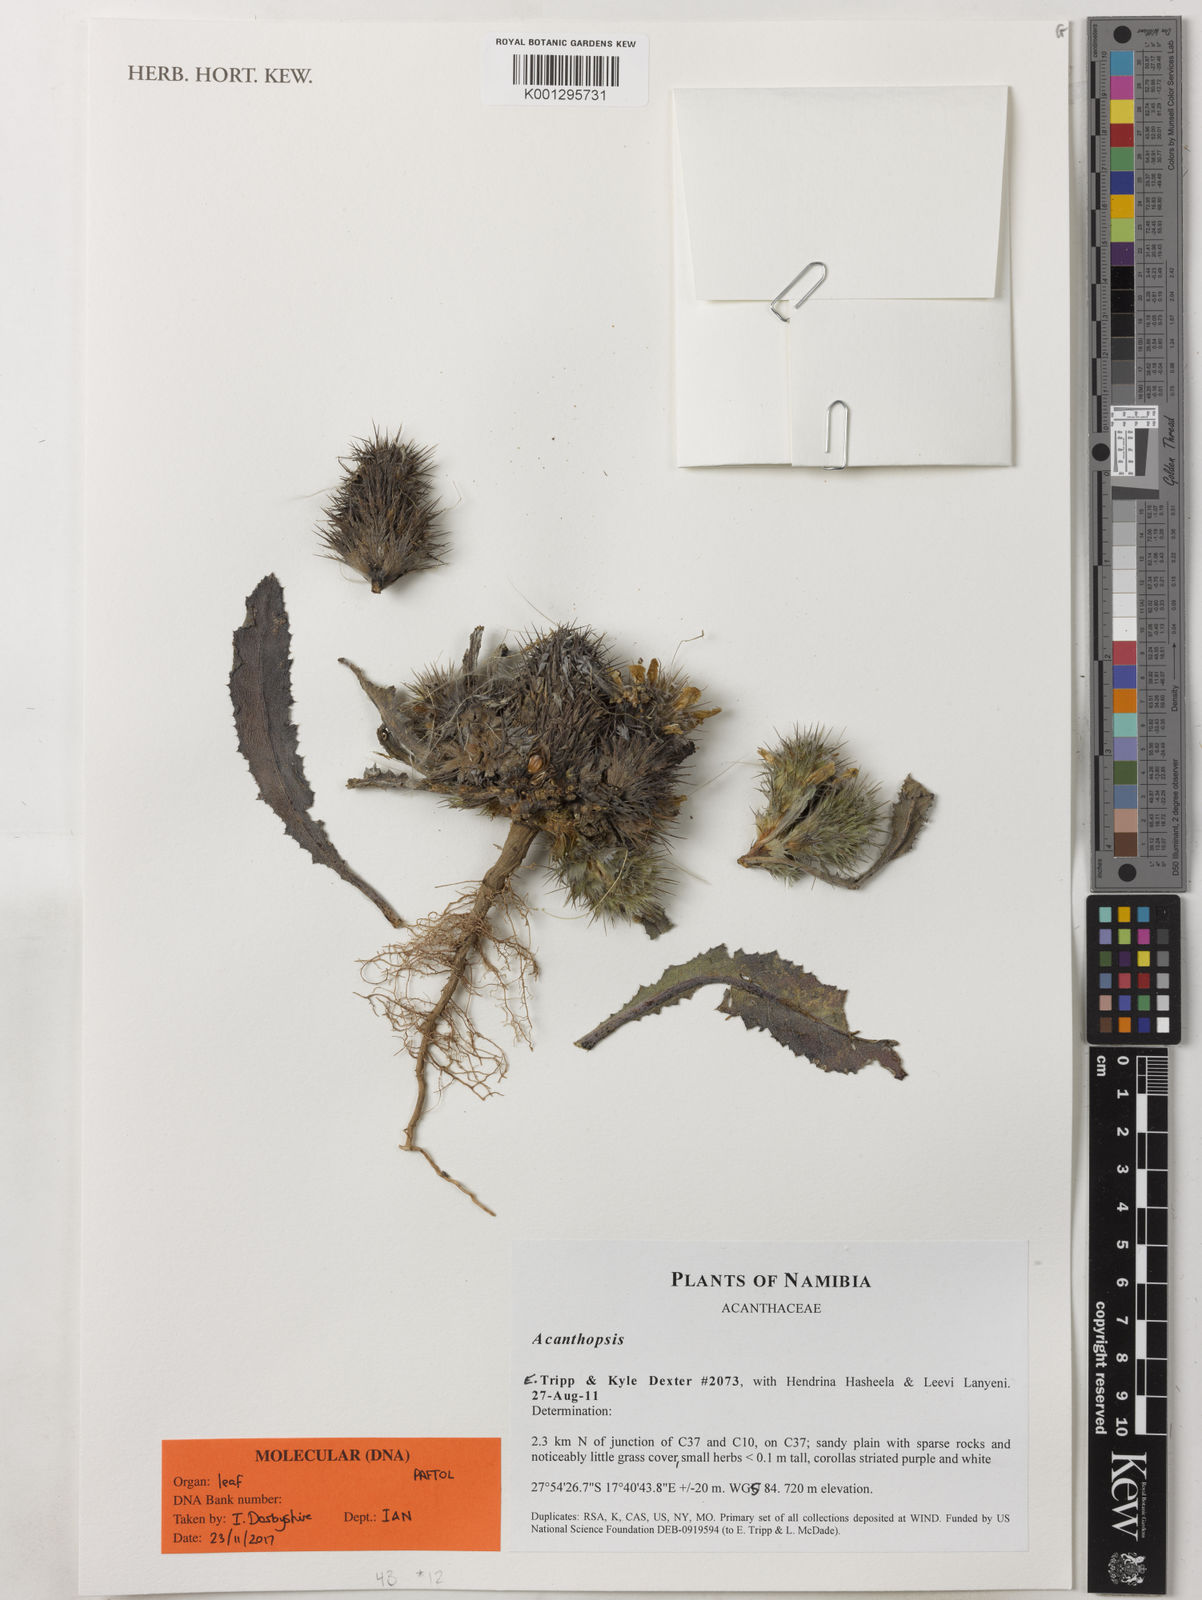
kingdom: Plantae
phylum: Tracheophyta
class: Magnoliopsida
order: Lamiales
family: Acanthaceae
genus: Acanthopsis
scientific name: Acanthopsis
